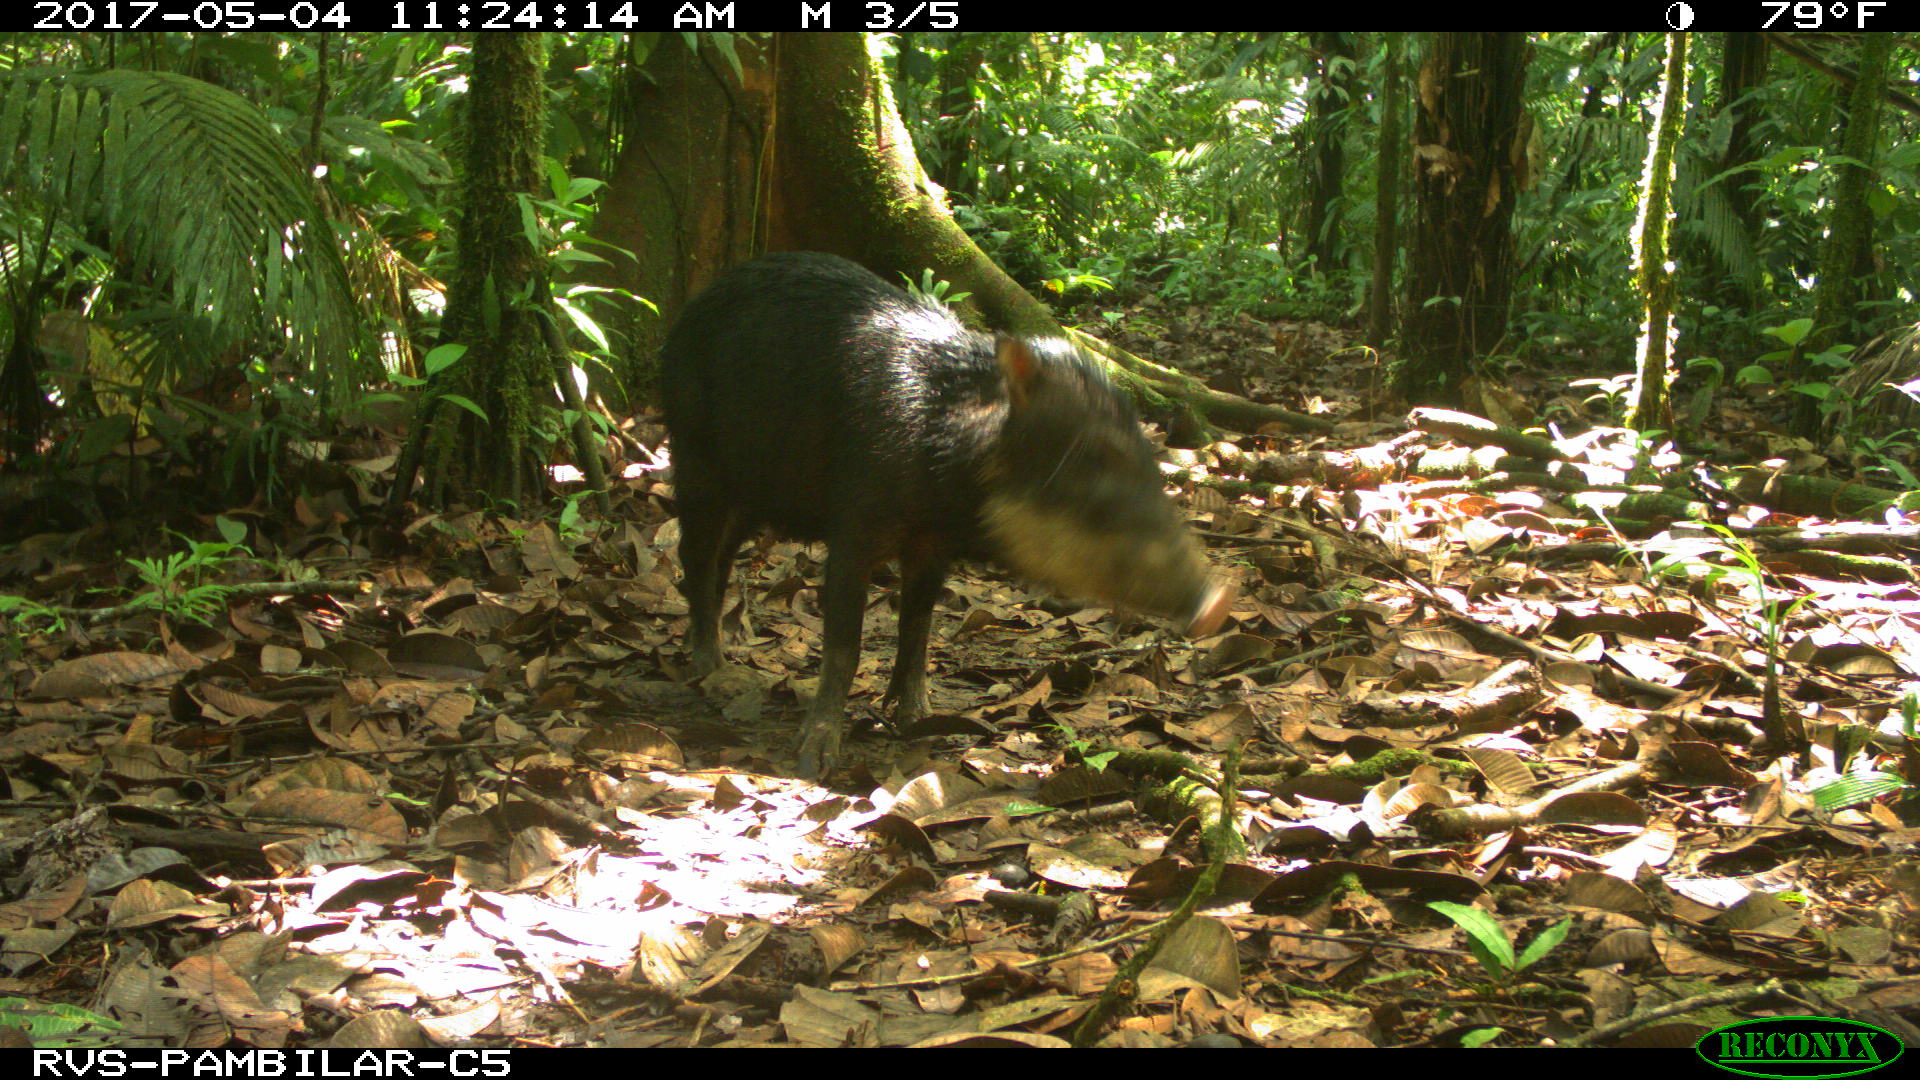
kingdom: Animalia
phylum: Chordata
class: Mammalia
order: Artiodactyla
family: Tayassuidae
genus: Tayassu
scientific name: Tayassu pecari
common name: White-lipped peccary
